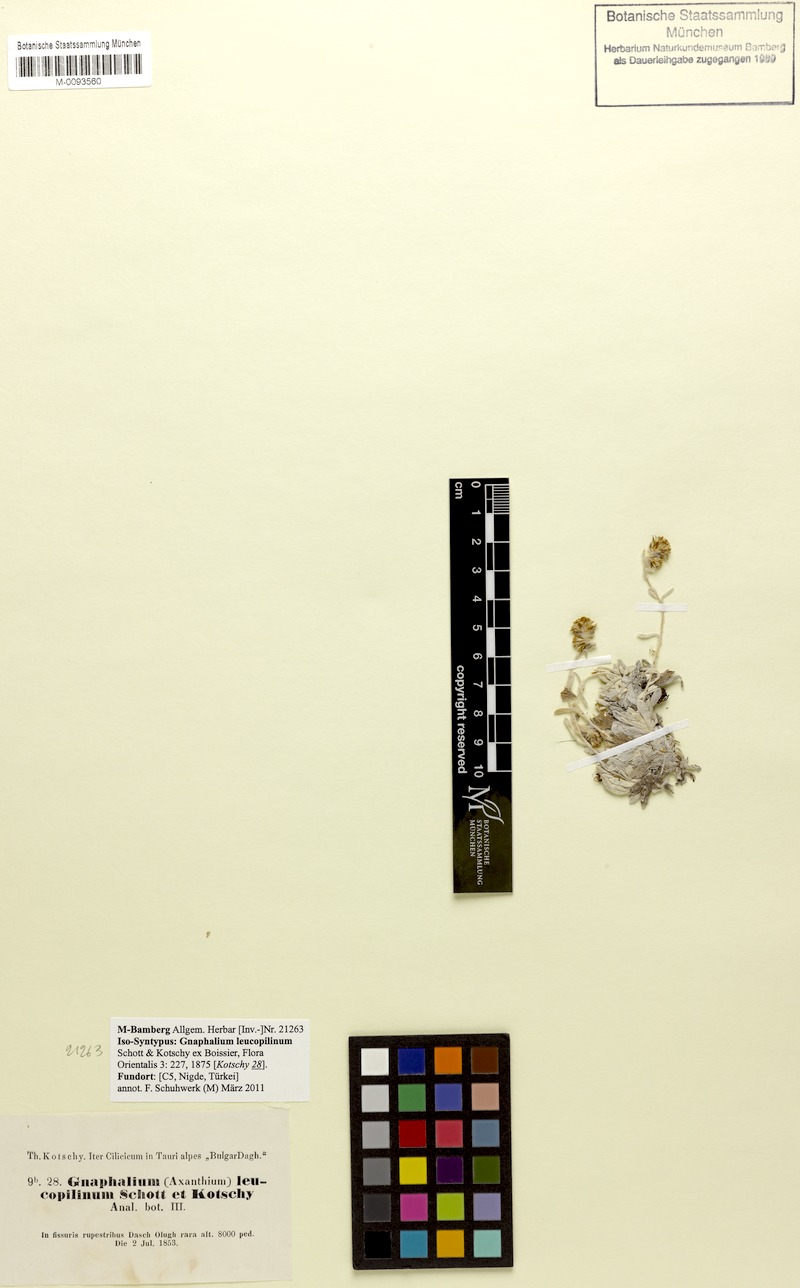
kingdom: Plantae
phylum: Tracheophyta
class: Magnoliopsida
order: Asterales
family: Asteraceae
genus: Omalotheca
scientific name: Omalotheca leucopilina
